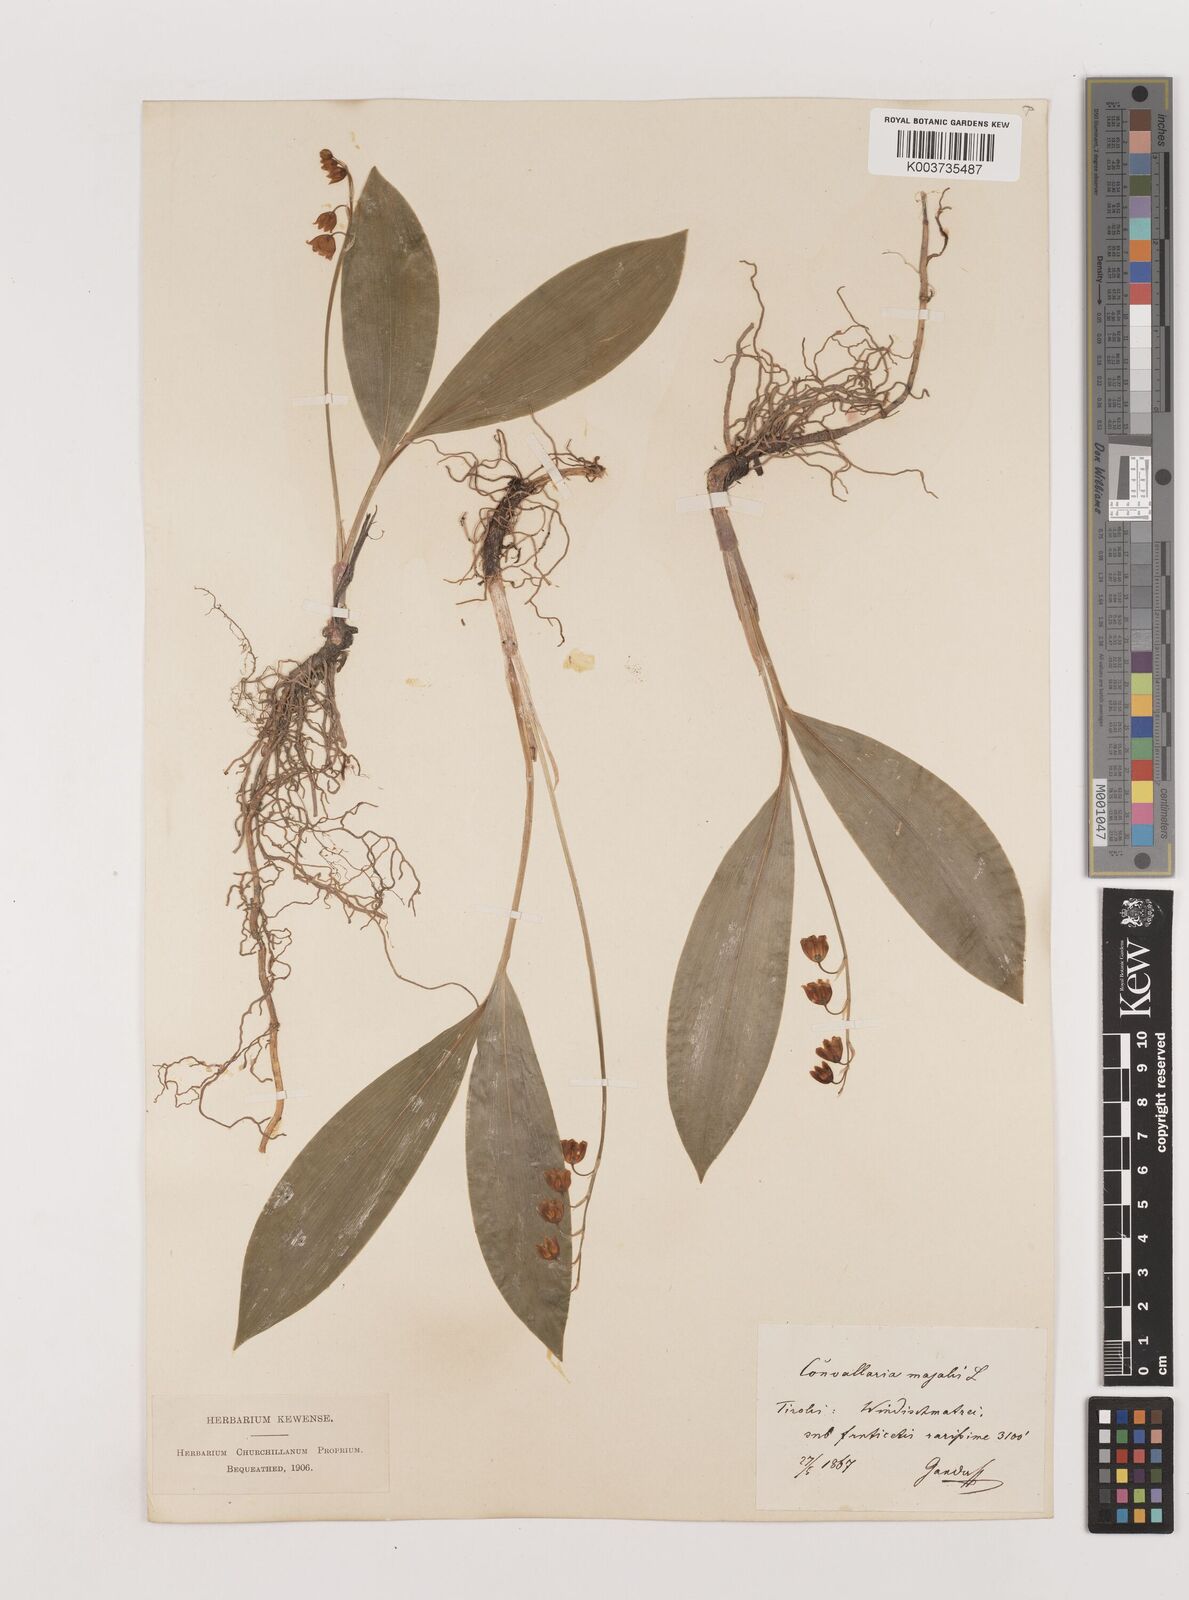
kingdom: Plantae
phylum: Tracheophyta
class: Liliopsida
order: Asparagales
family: Asparagaceae
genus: Convallaria
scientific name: Convallaria majalis
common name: Lily-of-the-valley
